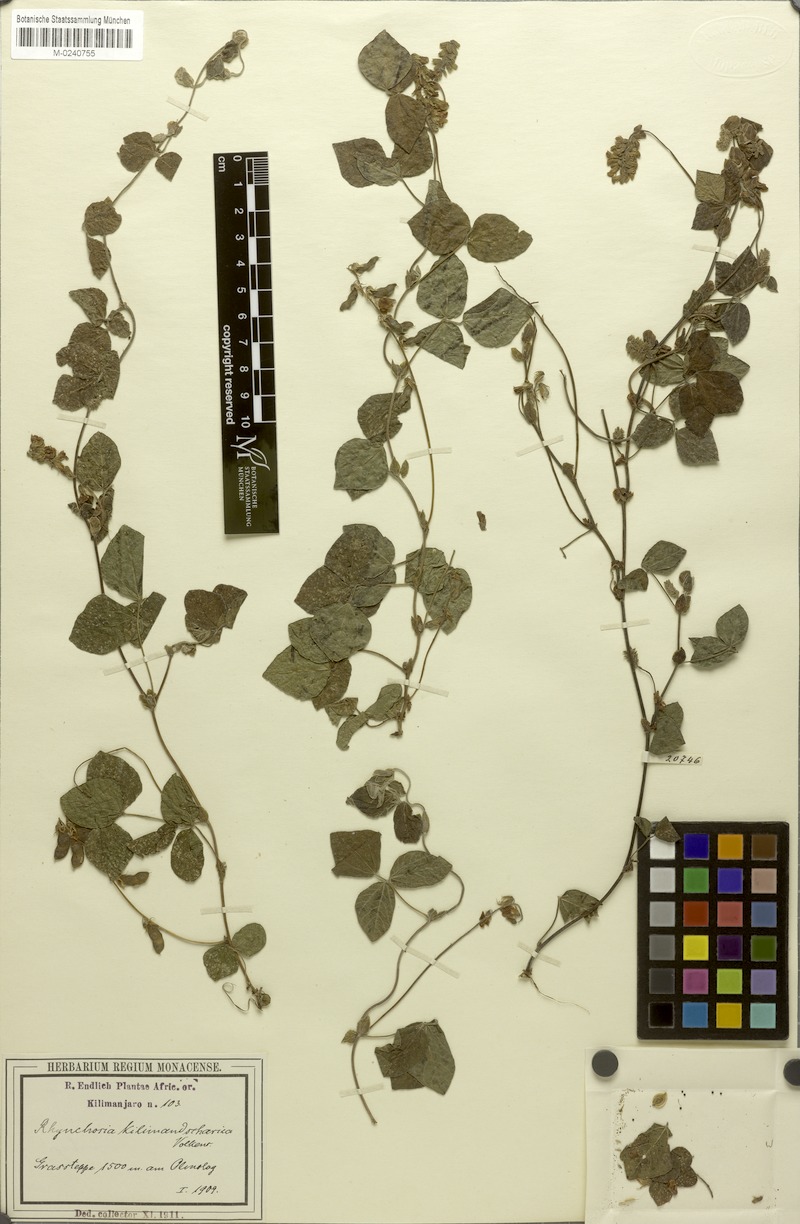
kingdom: Plantae
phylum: Tracheophyta
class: Magnoliopsida
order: Fabales
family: Fabaceae
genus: Rhynchosia
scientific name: Rhynchosia kilimandscharica
